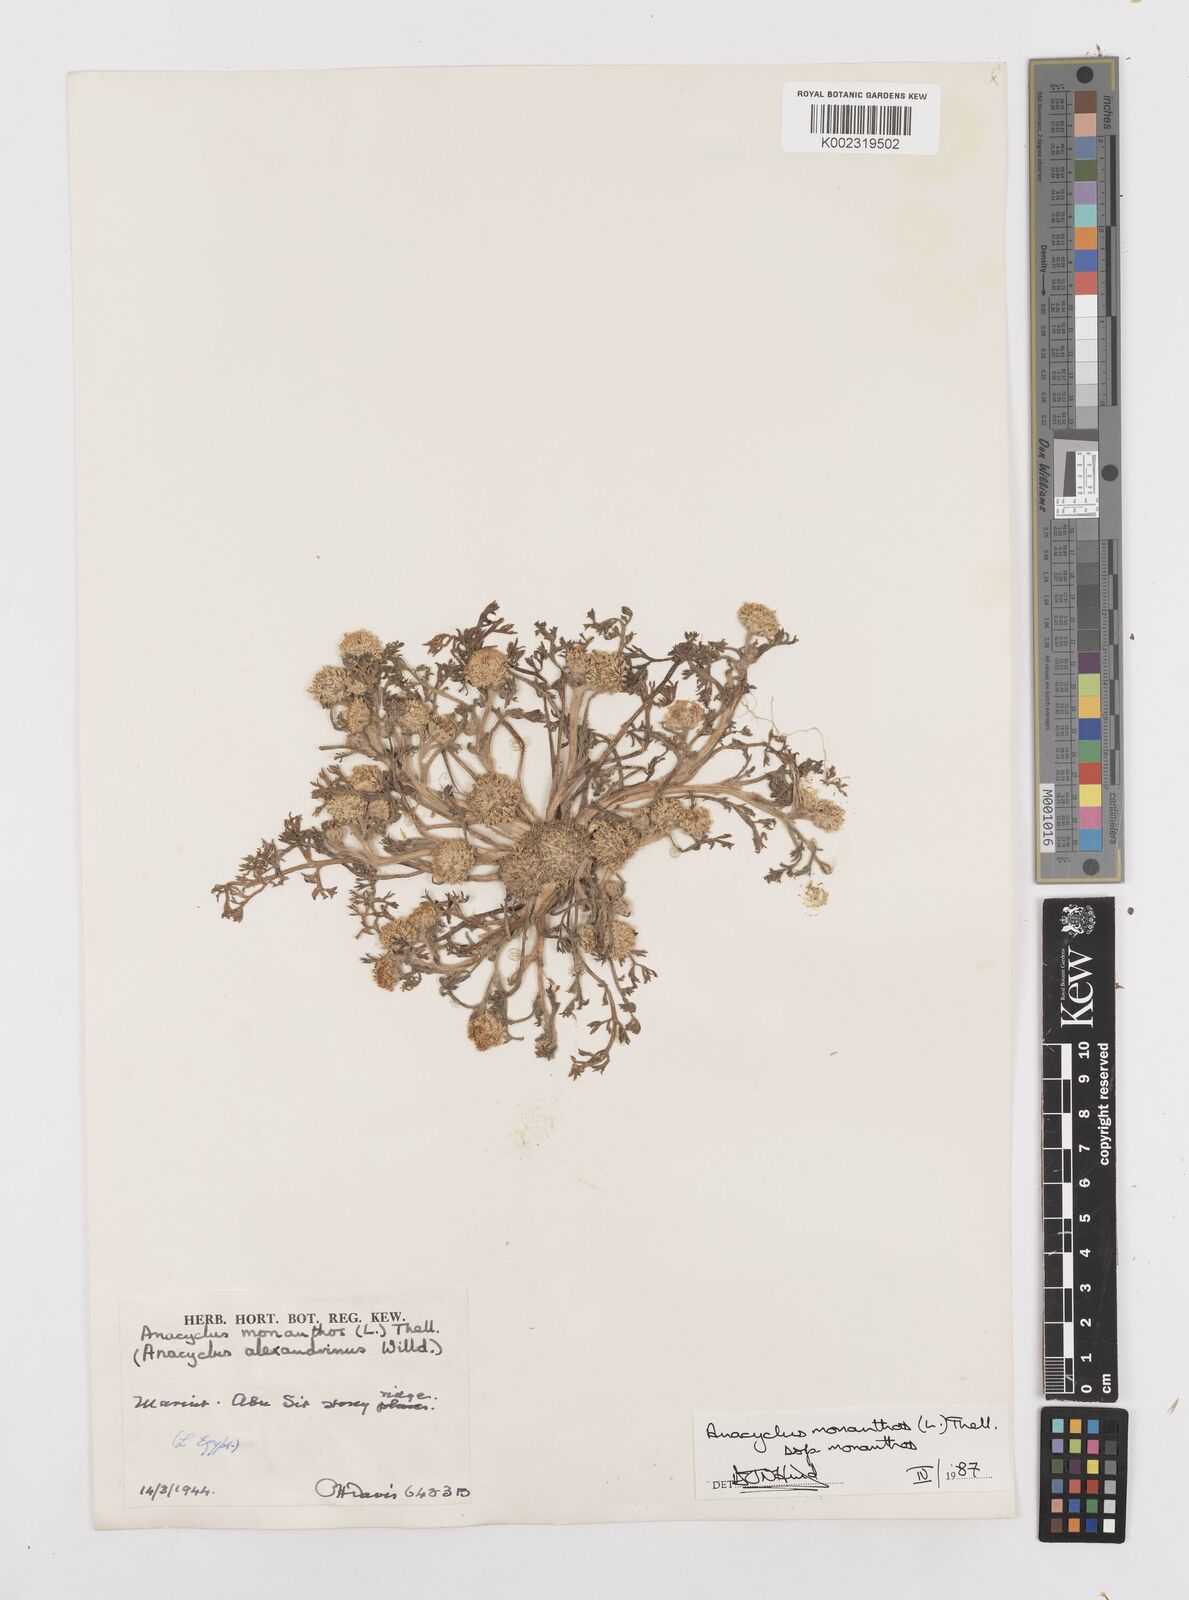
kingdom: Plantae
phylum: Tracheophyta
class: Magnoliopsida
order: Asterales
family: Asteraceae
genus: Anacyclus
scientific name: Anacyclus monanthos
